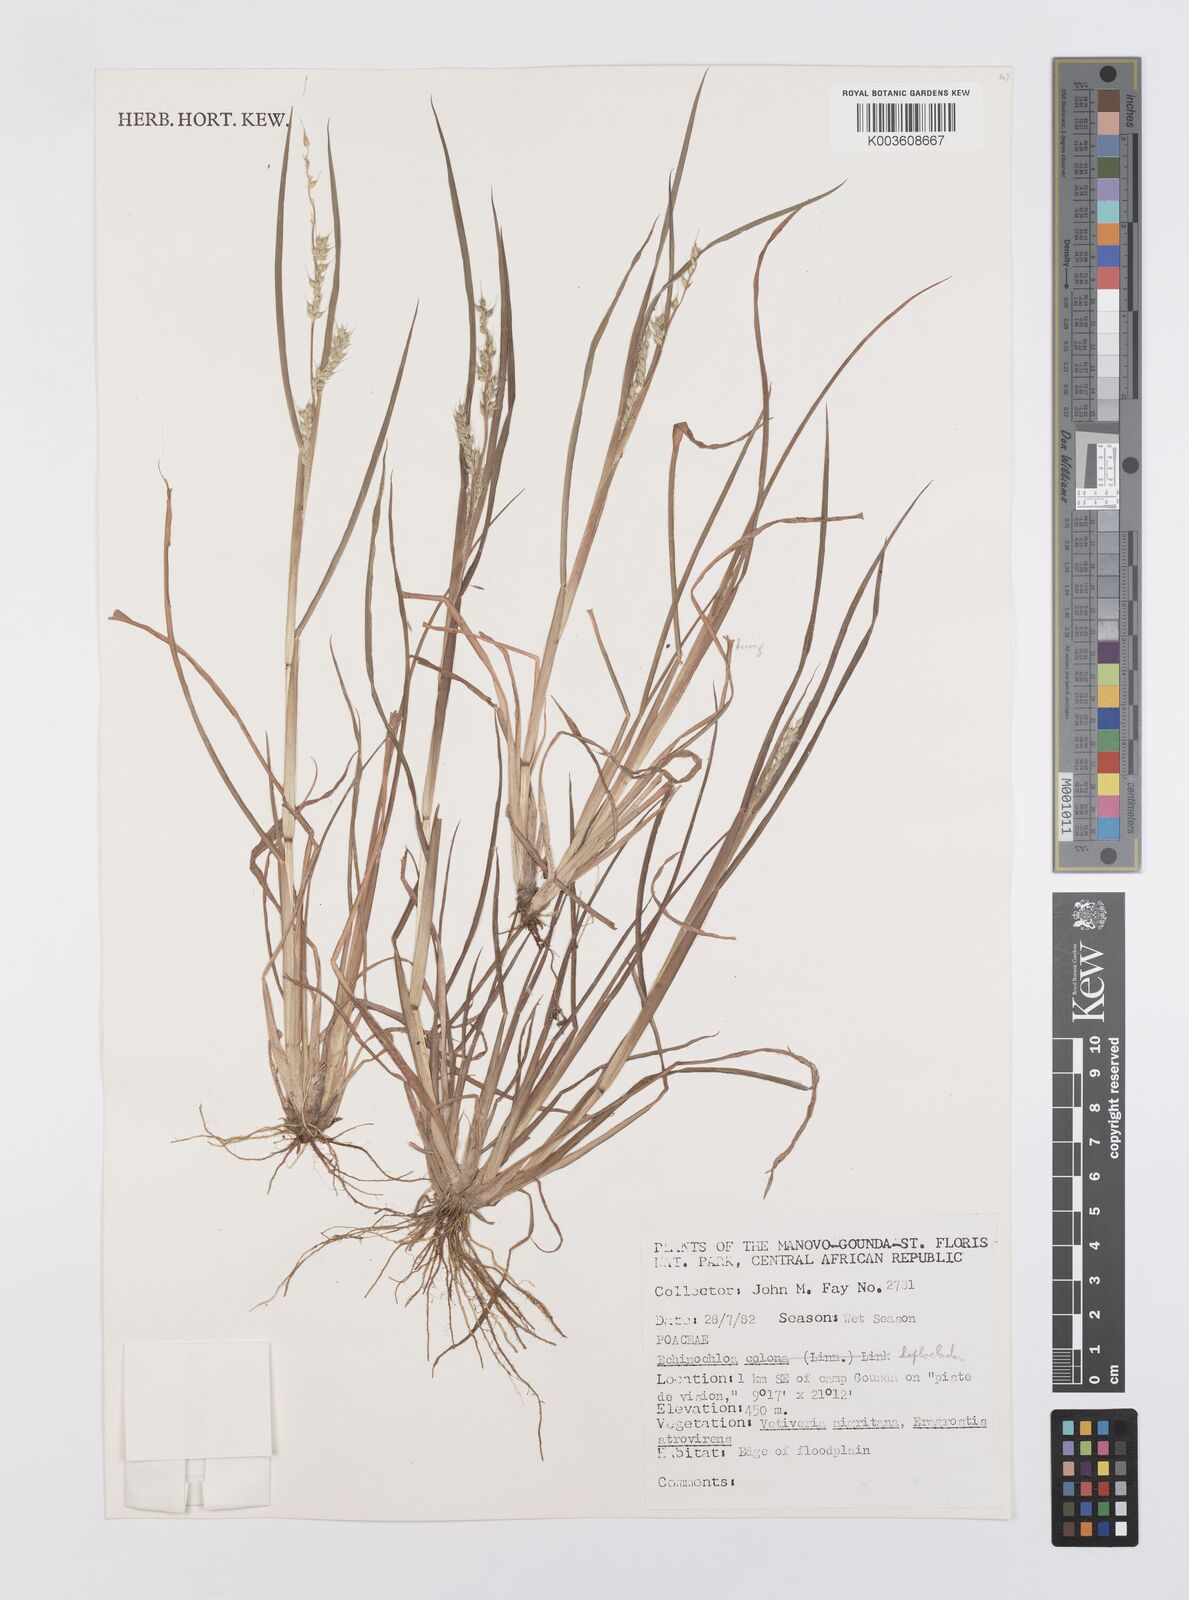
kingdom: Plantae
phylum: Tracheophyta
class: Liliopsida
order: Poales
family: Poaceae
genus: Echinochloa
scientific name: Echinochloa haploclada
